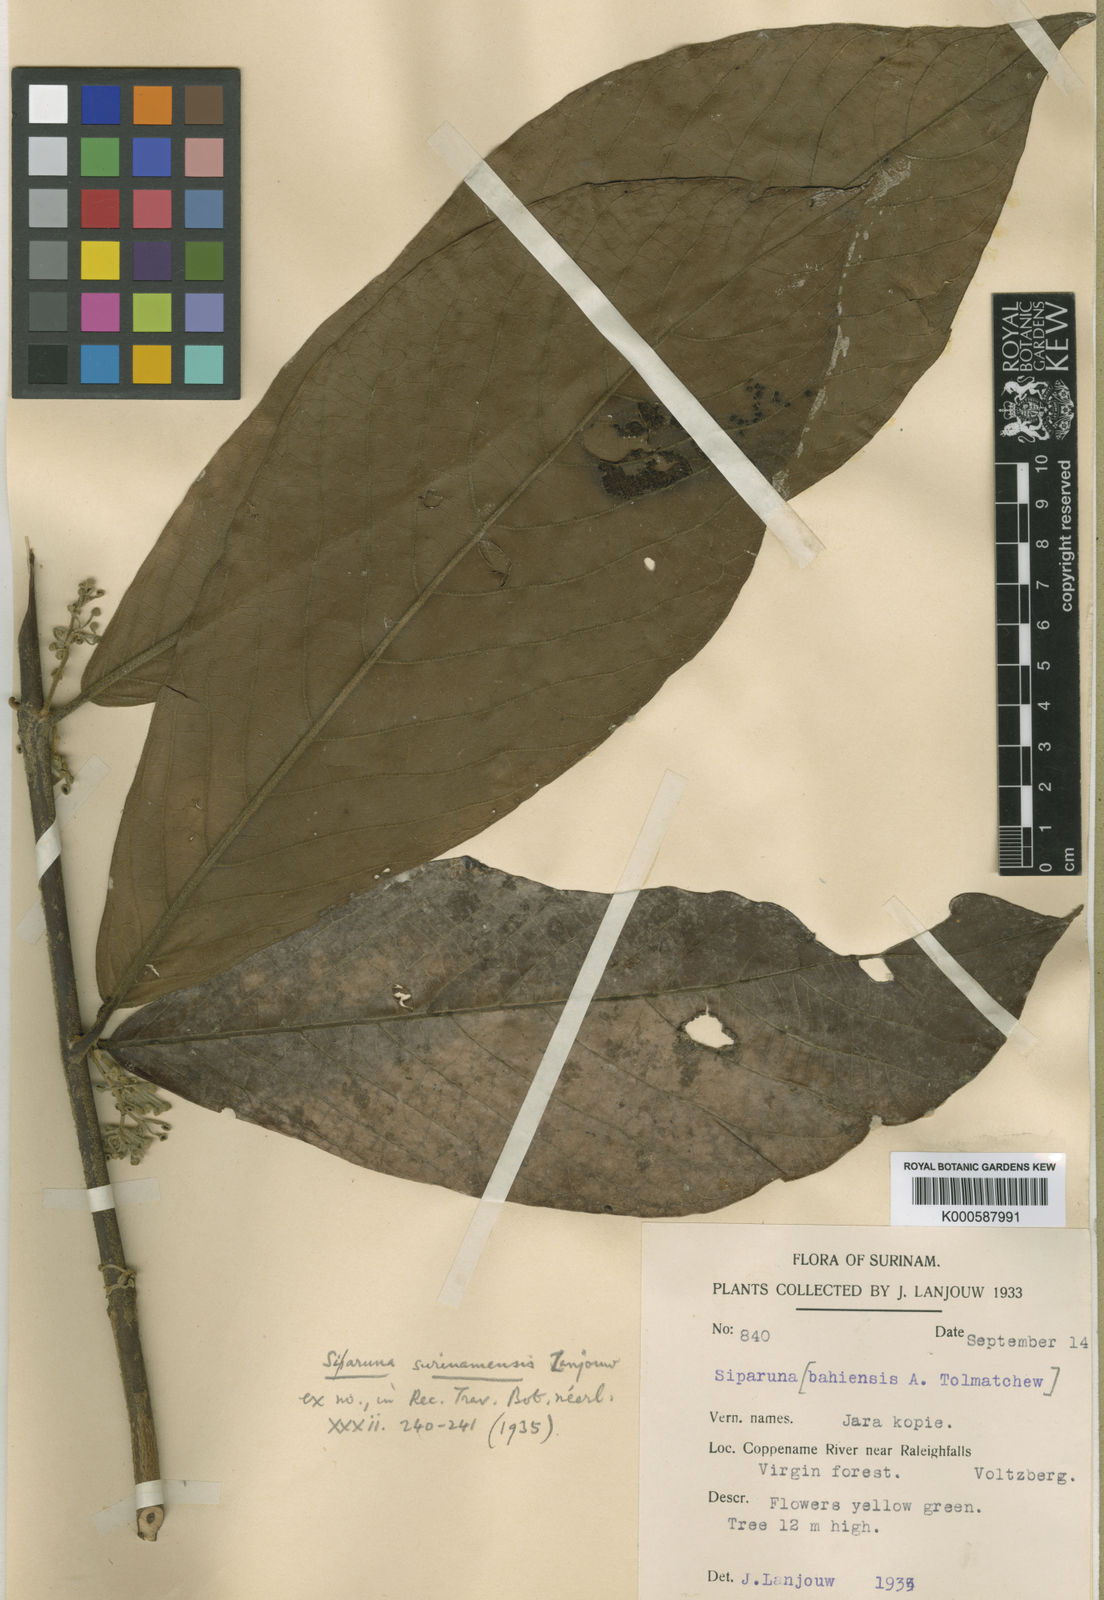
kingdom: Plantae
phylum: Tracheophyta
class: Magnoliopsida
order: Laurales
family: Siparunaceae
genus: Siparuna
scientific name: Siparuna reginae
